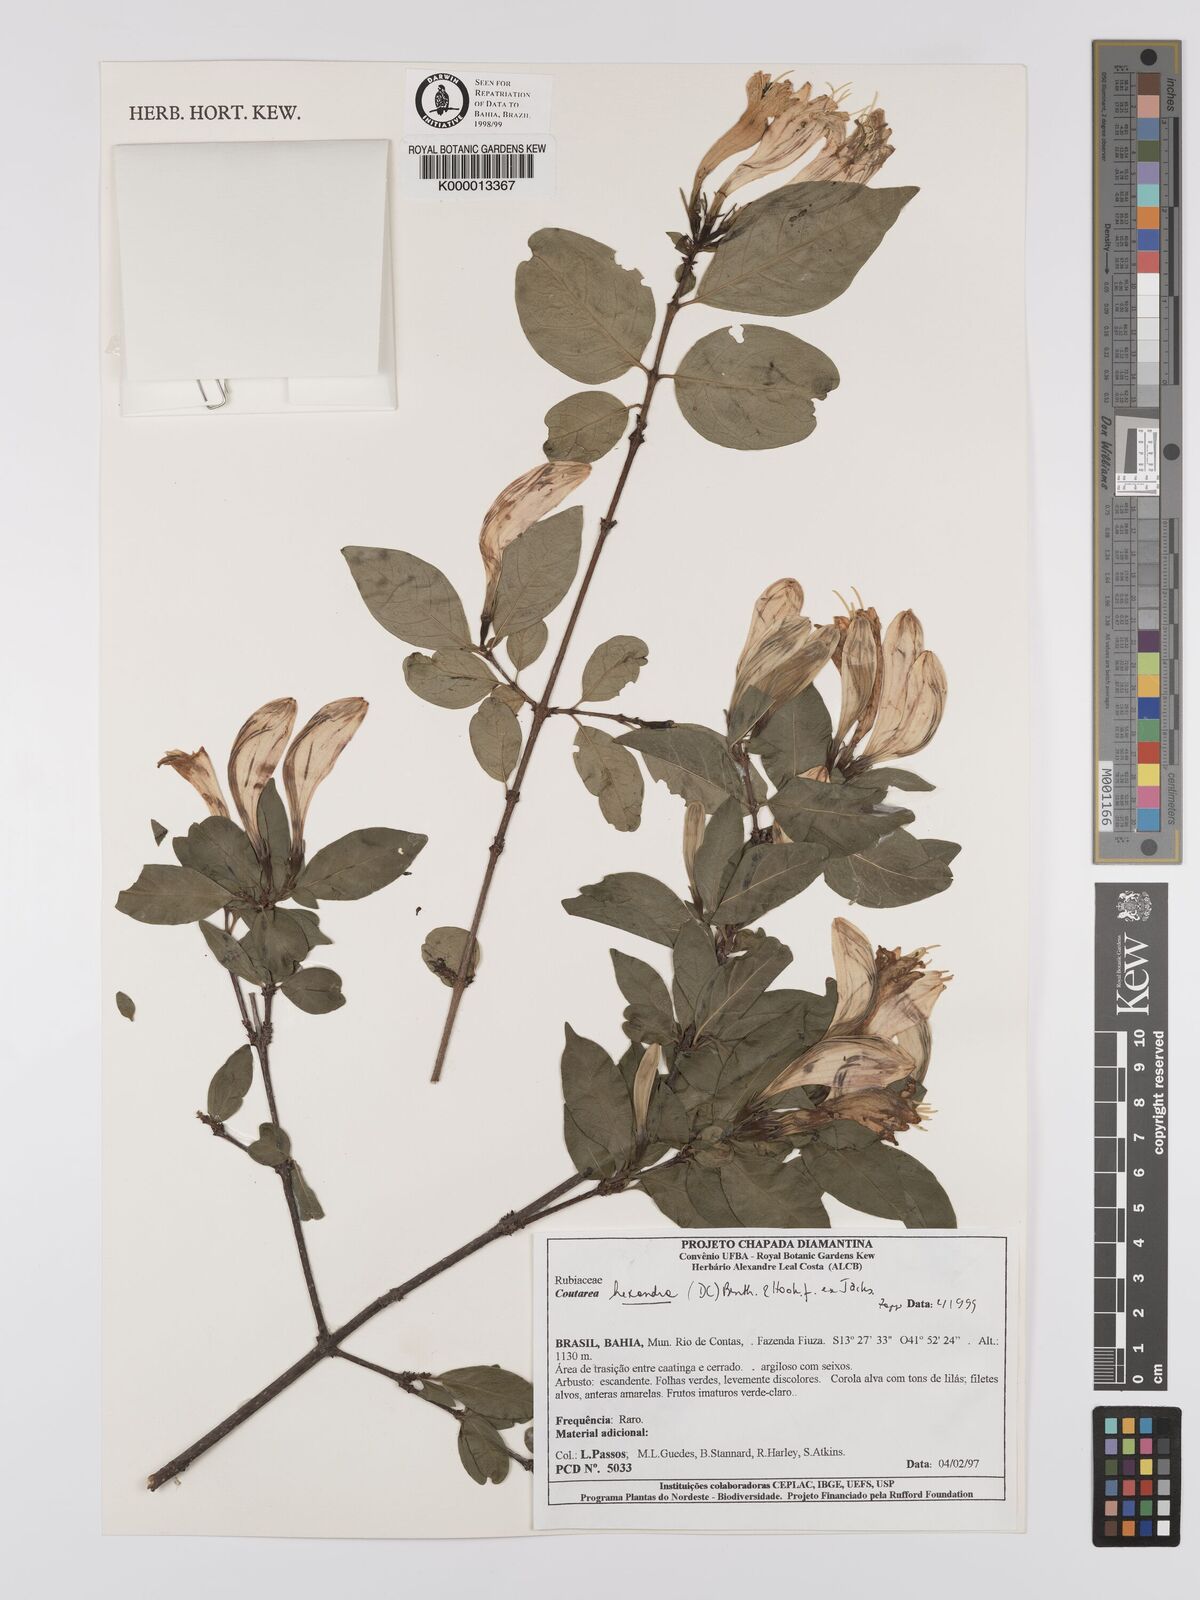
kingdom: Plantae
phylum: Tracheophyta
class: Magnoliopsida
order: Gentianales
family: Rubiaceae
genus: Coutarea
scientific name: Coutarea hexandra
